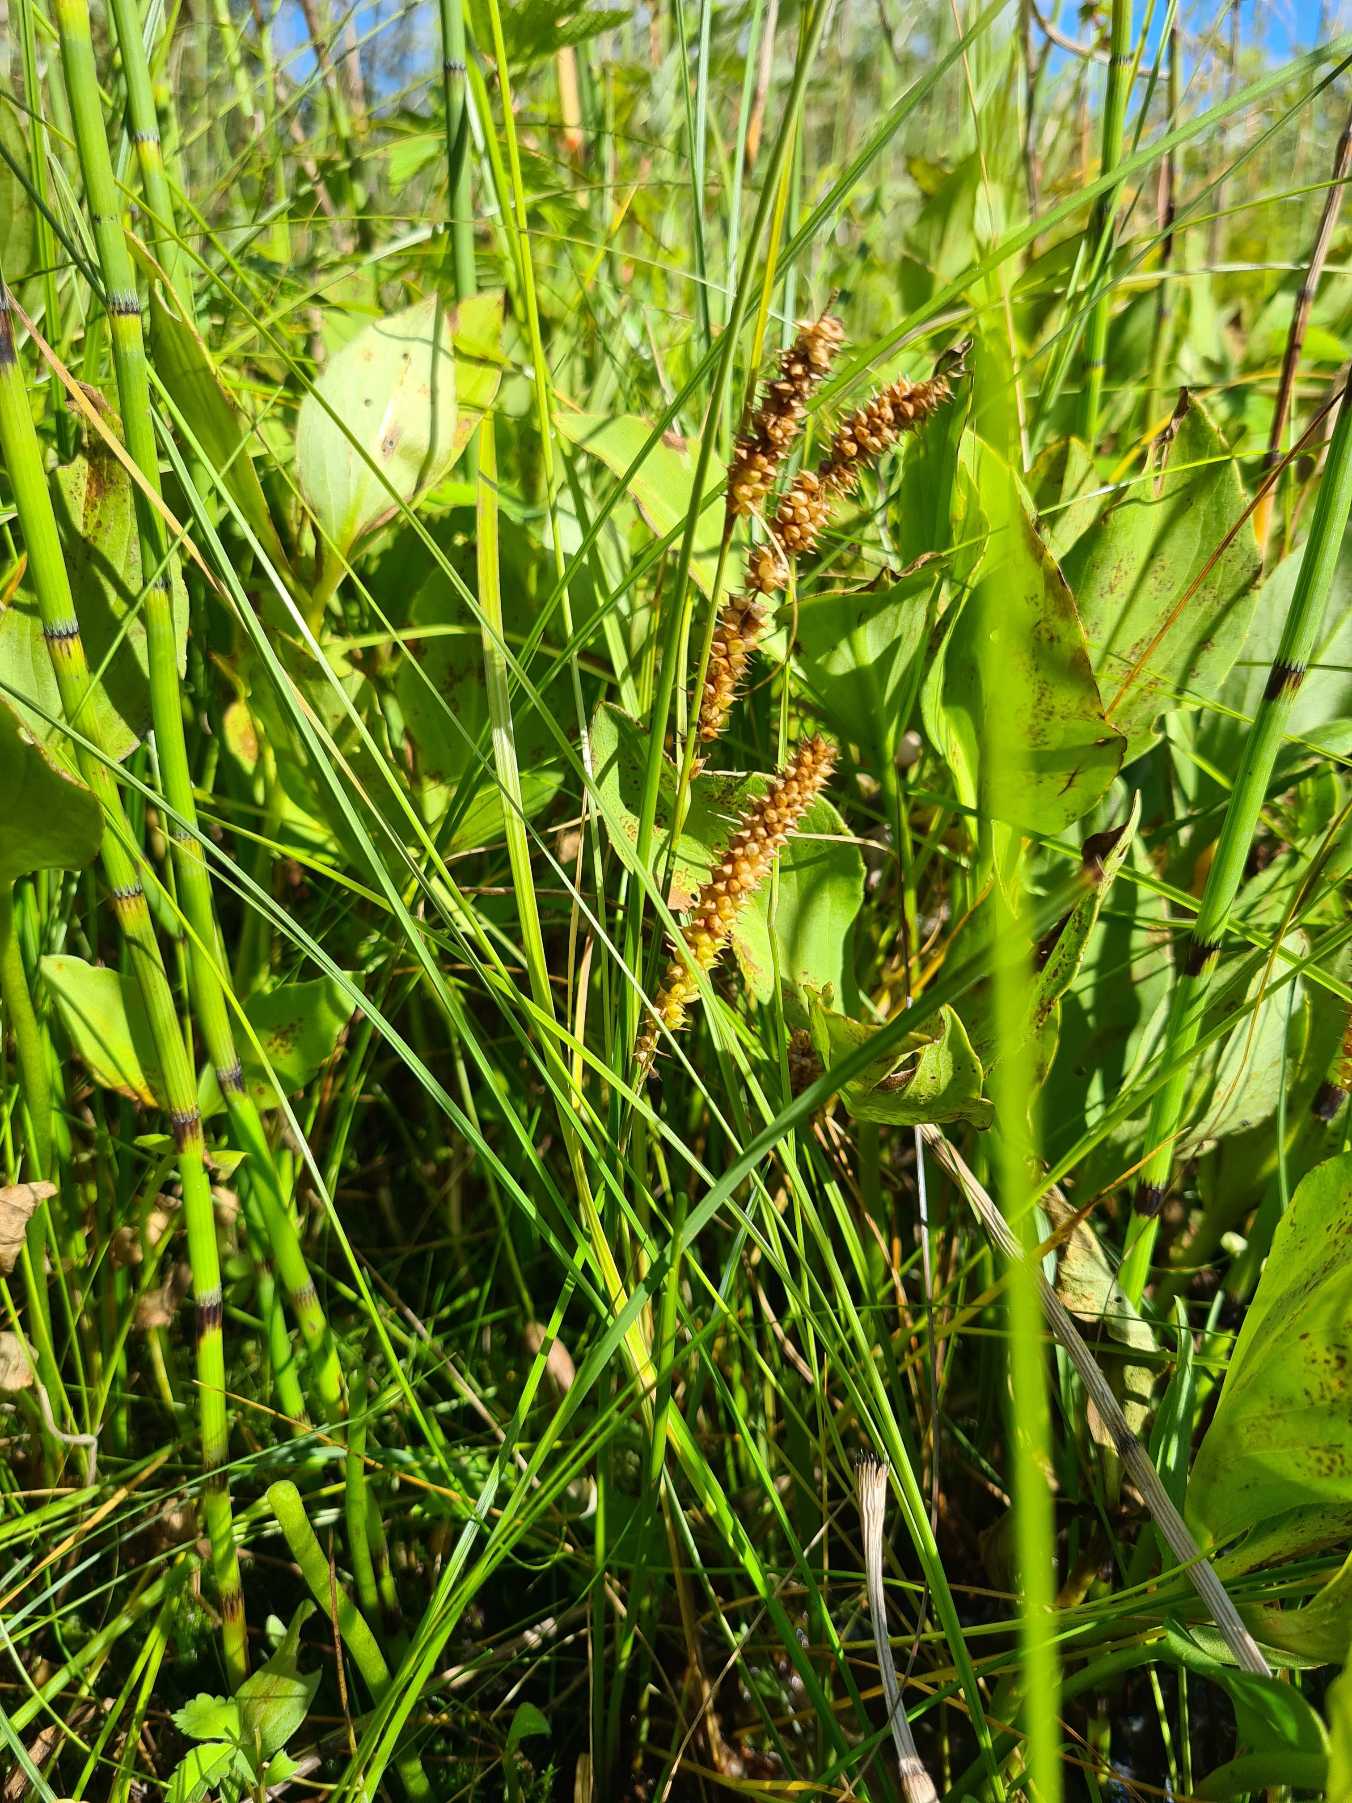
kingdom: Plantae
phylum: Tracheophyta
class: Liliopsida
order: Poales
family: Cyperaceae
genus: Carex
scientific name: Carex rostrata
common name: Næb-star
